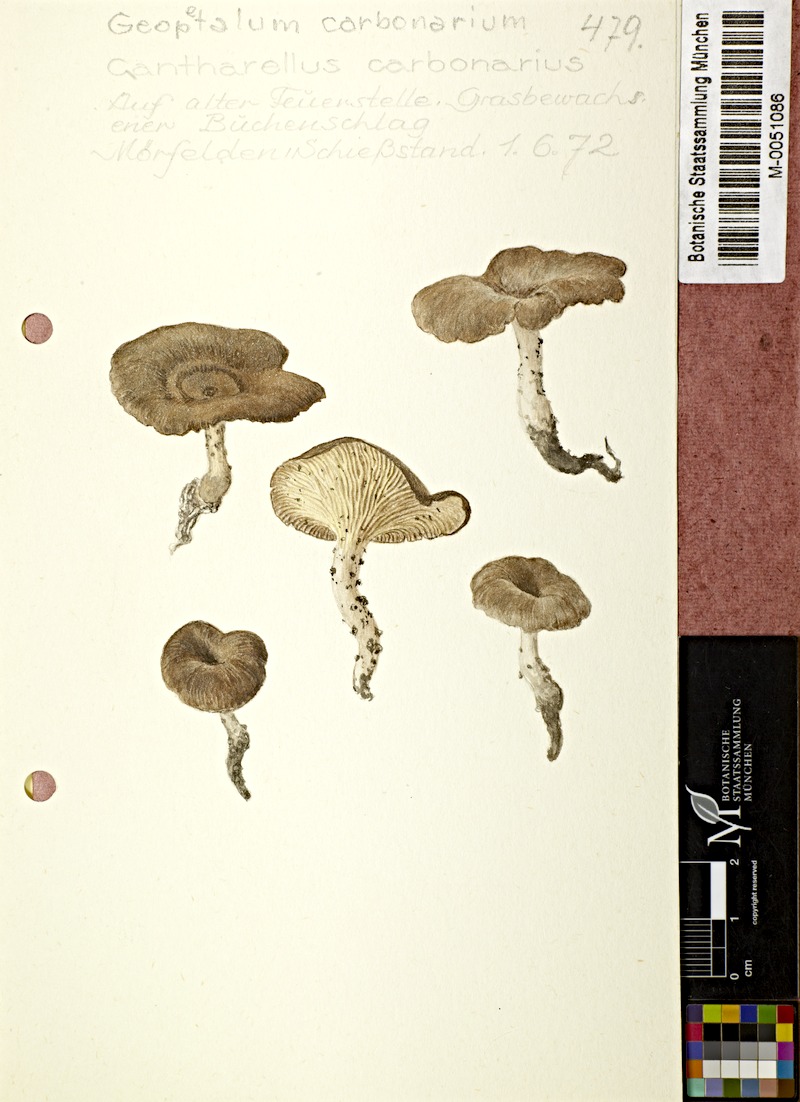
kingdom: Fungi
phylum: Basidiomycota
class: Agaricomycetes
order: Polyporales
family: Polyporaceae
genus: Faerberia
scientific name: Faerberia carbonaria
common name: Firesite funnel
